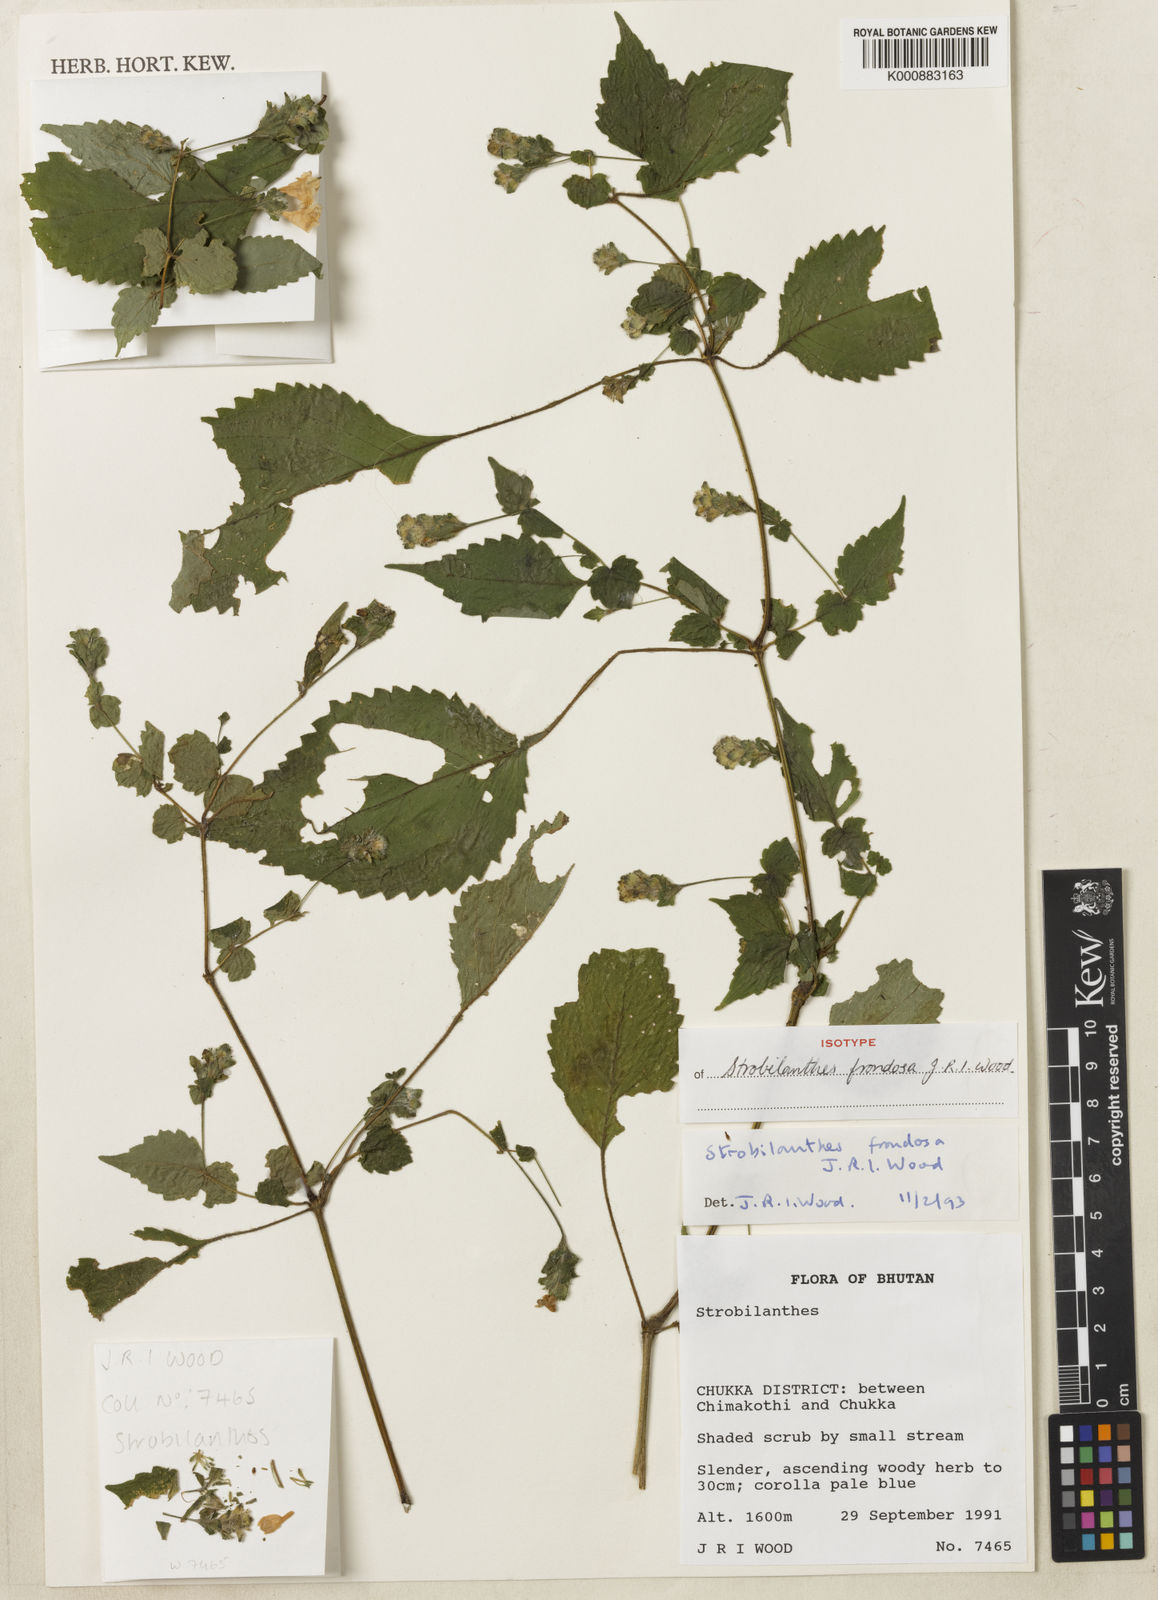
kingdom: Plantae
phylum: Tracheophyta
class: Magnoliopsida
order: Lamiales
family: Acanthaceae
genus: Strobilanthes
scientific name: Strobilanthes frondosa
